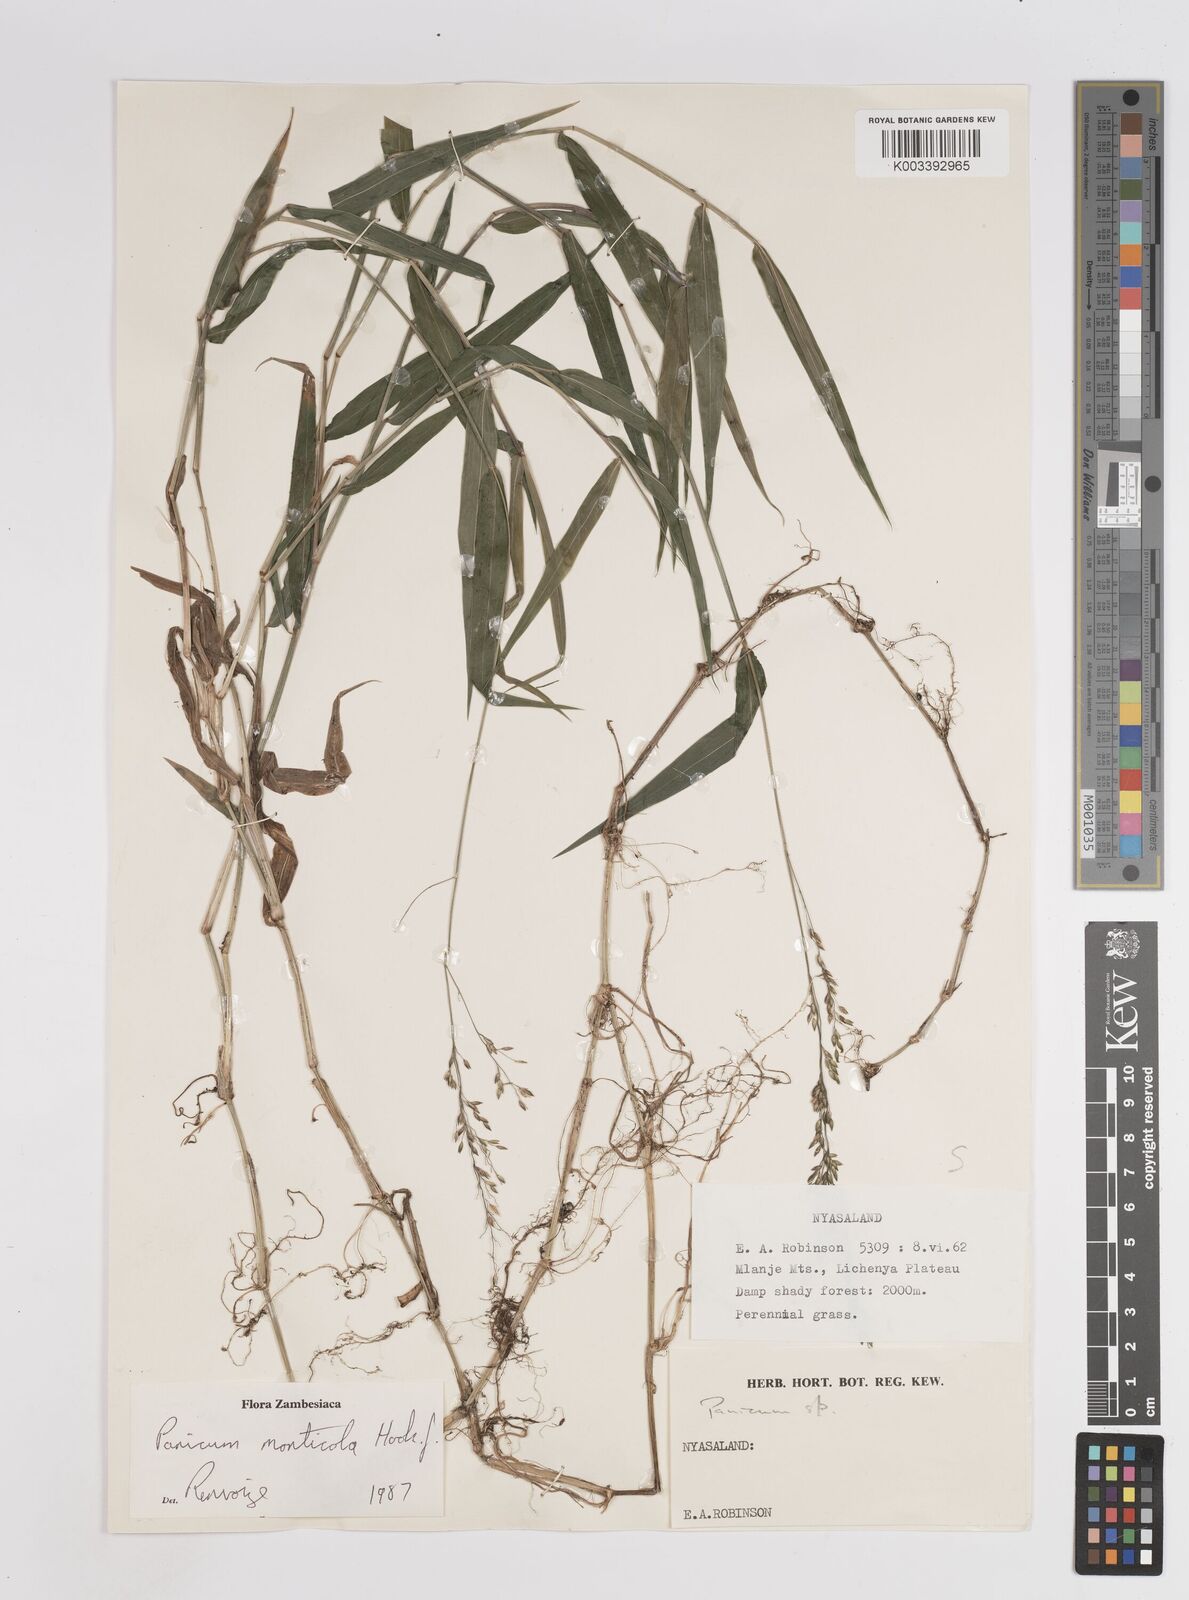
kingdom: Plantae
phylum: Tracheophyta
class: Liliopsida
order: Poales
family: Poaceae
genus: Panicum
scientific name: Panicum monticola
